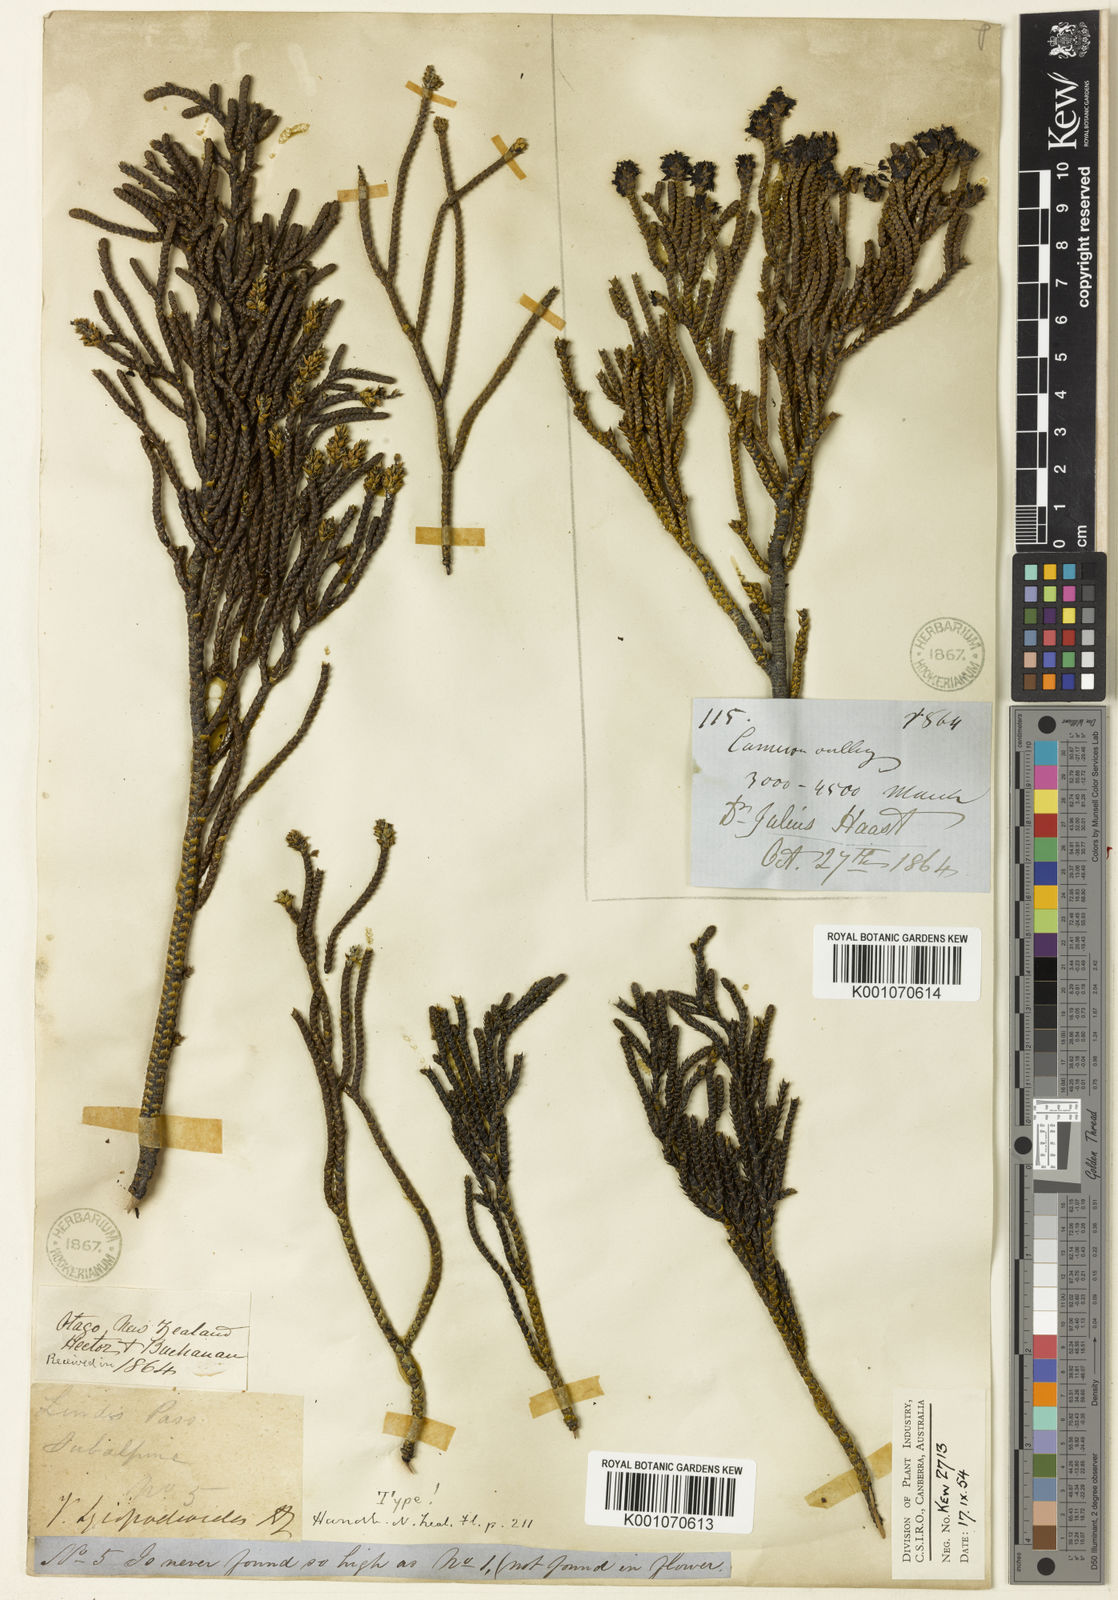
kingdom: Plantae
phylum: Tracheophyta
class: Magnoliopsida
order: Lamiales
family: Plantaginaceae
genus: Veronica
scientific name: Veronica lycopodioides
